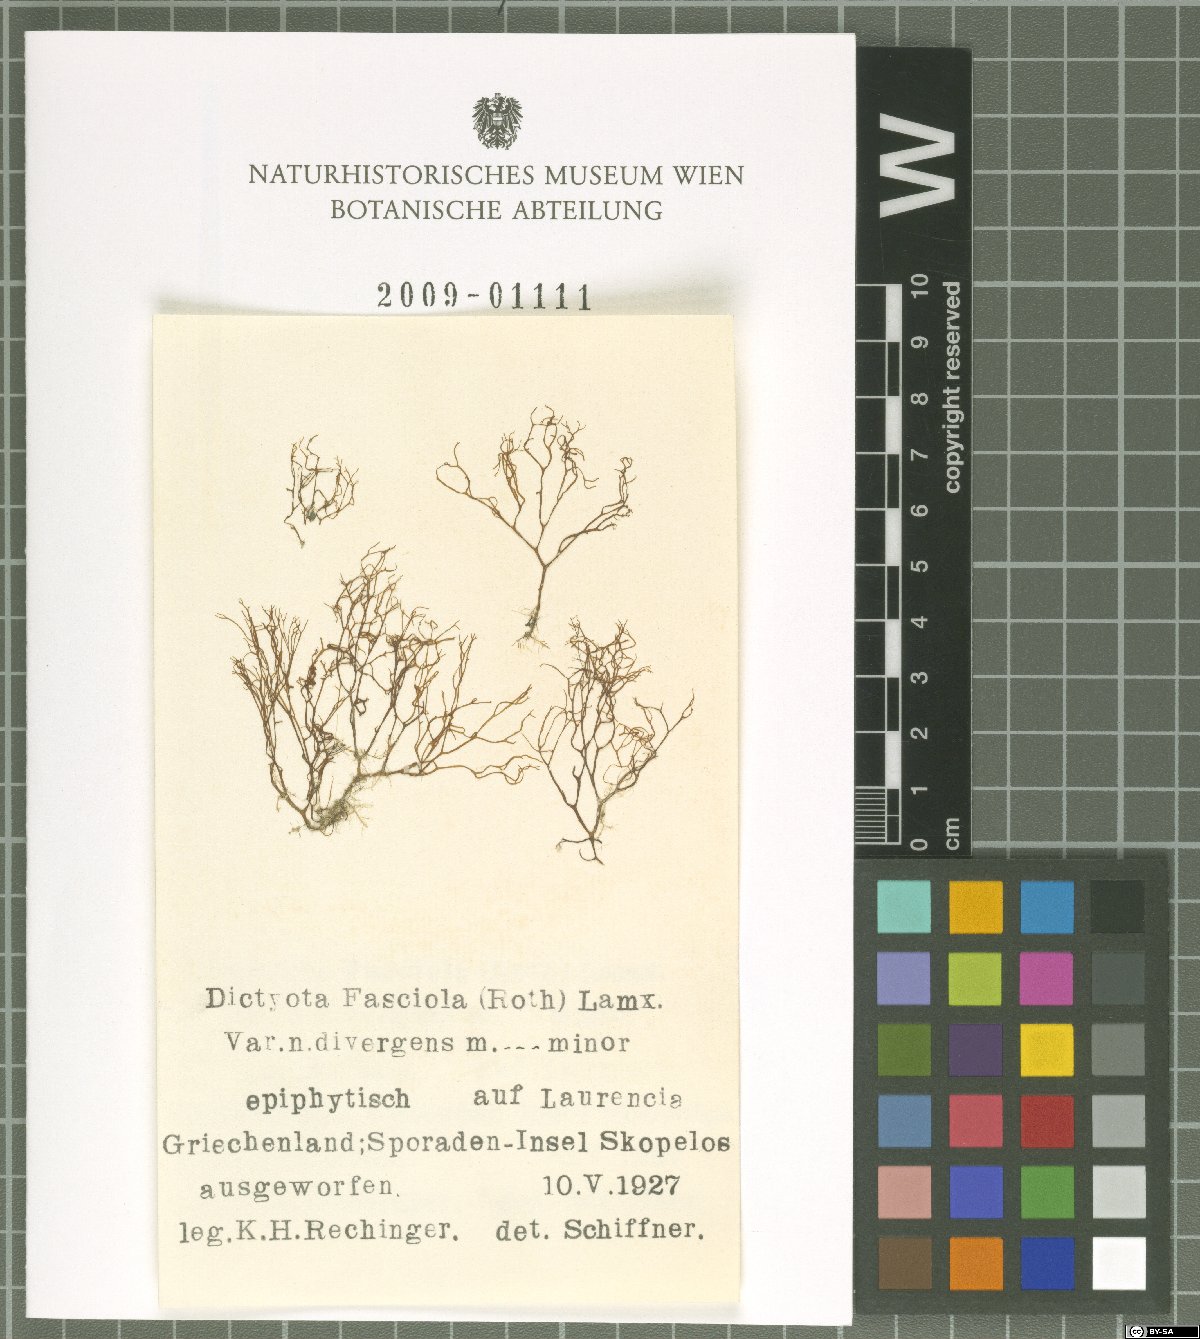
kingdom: Chromista
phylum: Ochrophyta
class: Phaeophyceae
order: Dictyotales
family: Dictyotaceae
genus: Dictyota
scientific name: Dictyota
